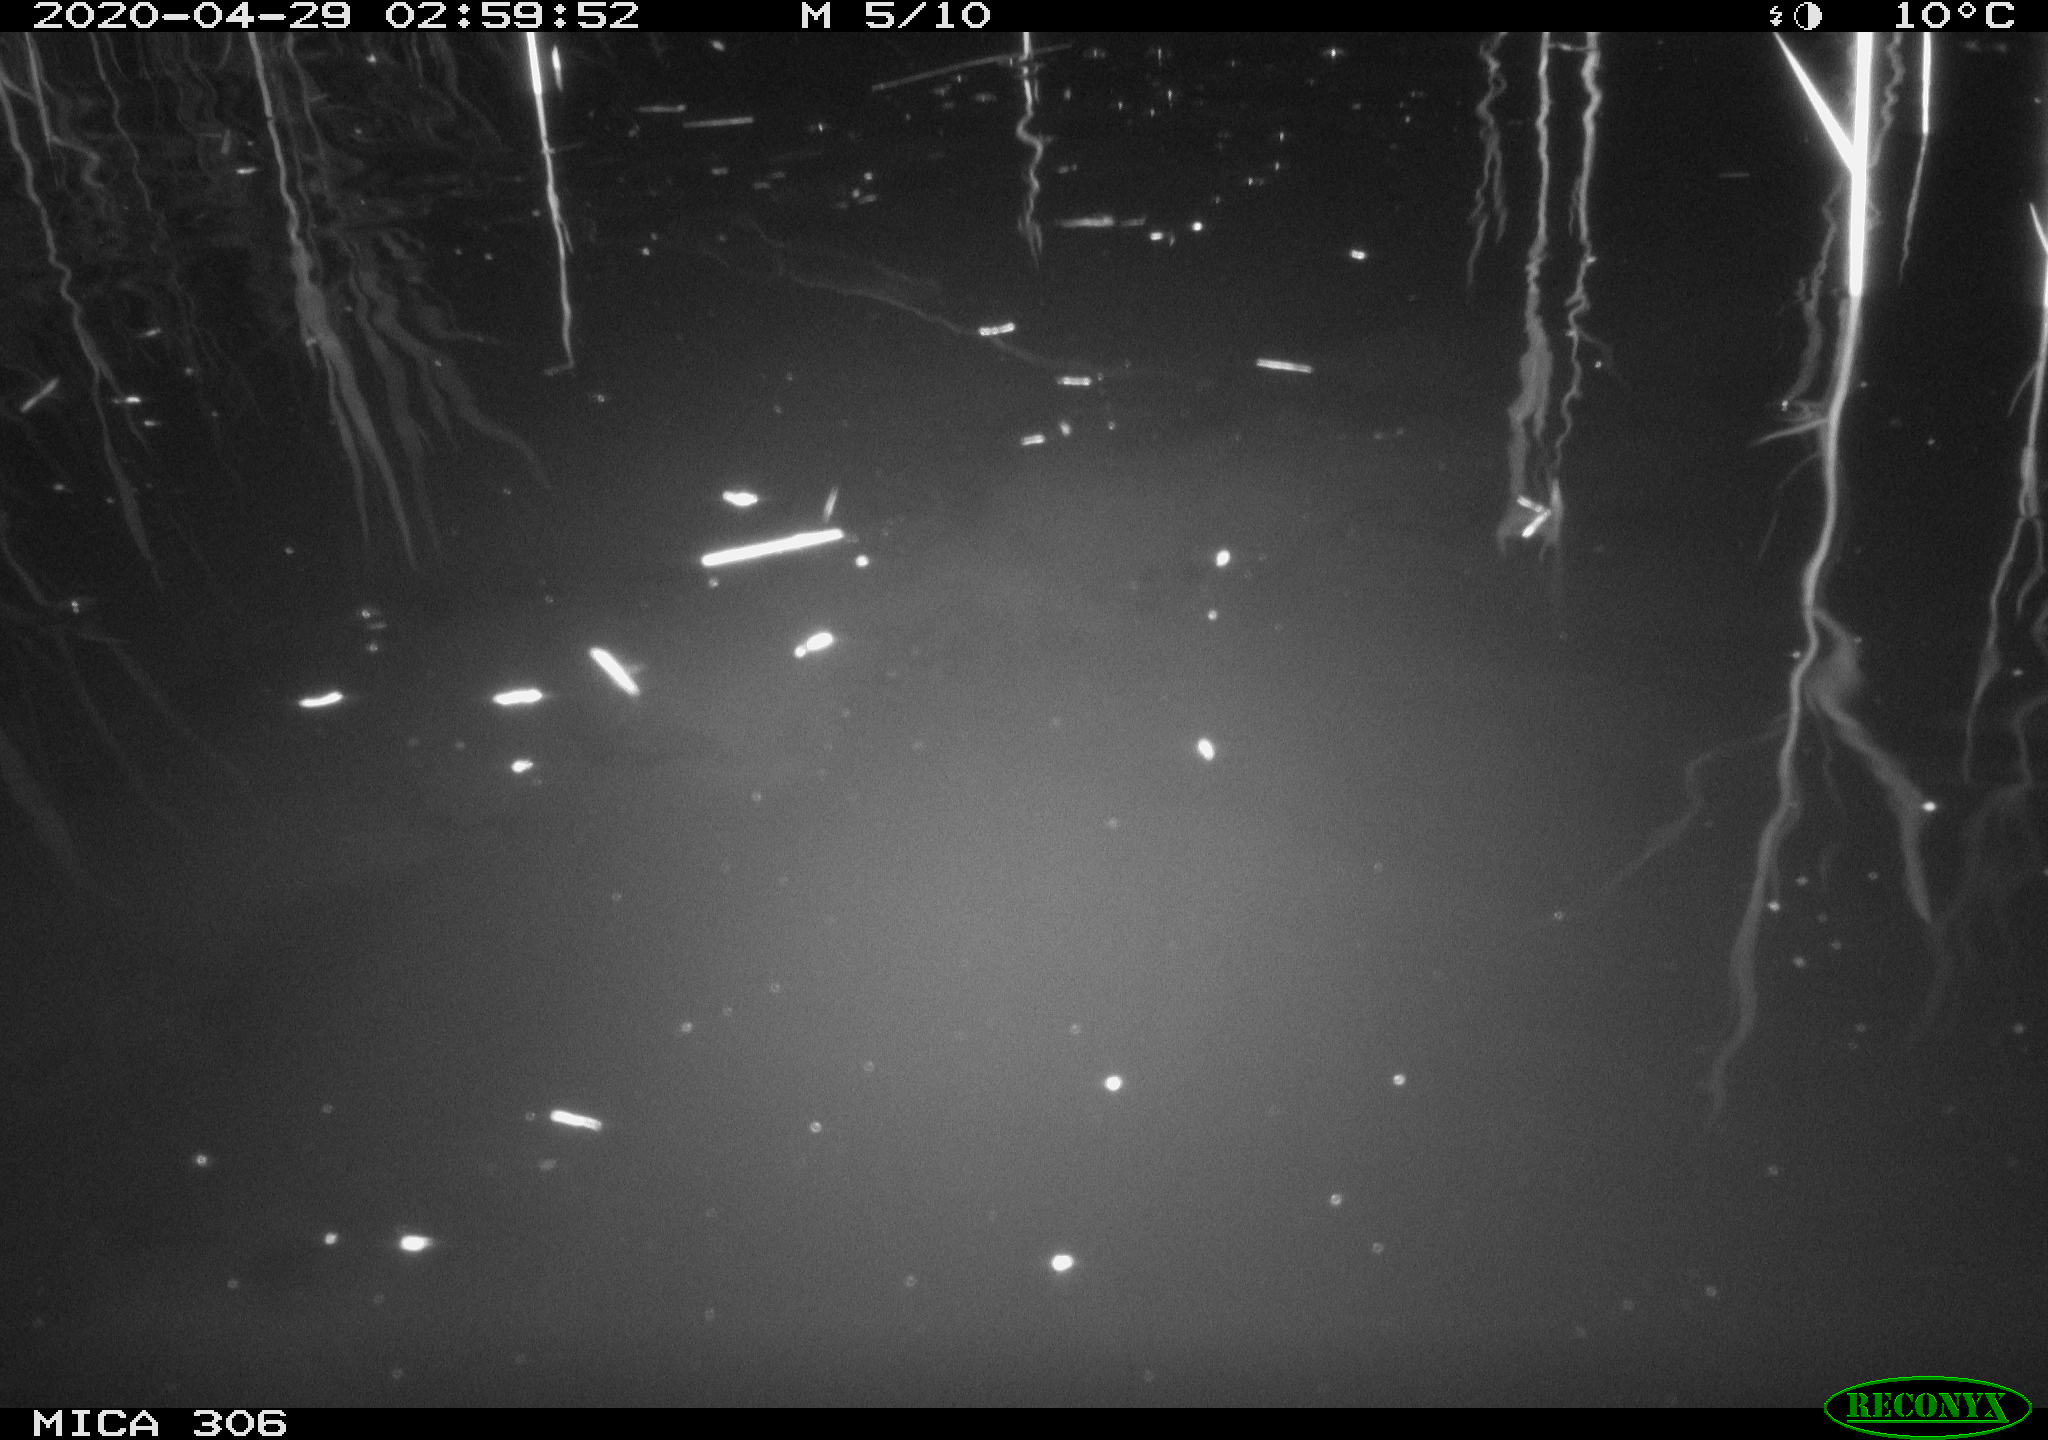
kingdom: Animalia
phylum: Chordata
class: Mammalia
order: Rodentia
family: Cricetidae
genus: Ondatra
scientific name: Ondatra zibethicus
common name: Muskrat
